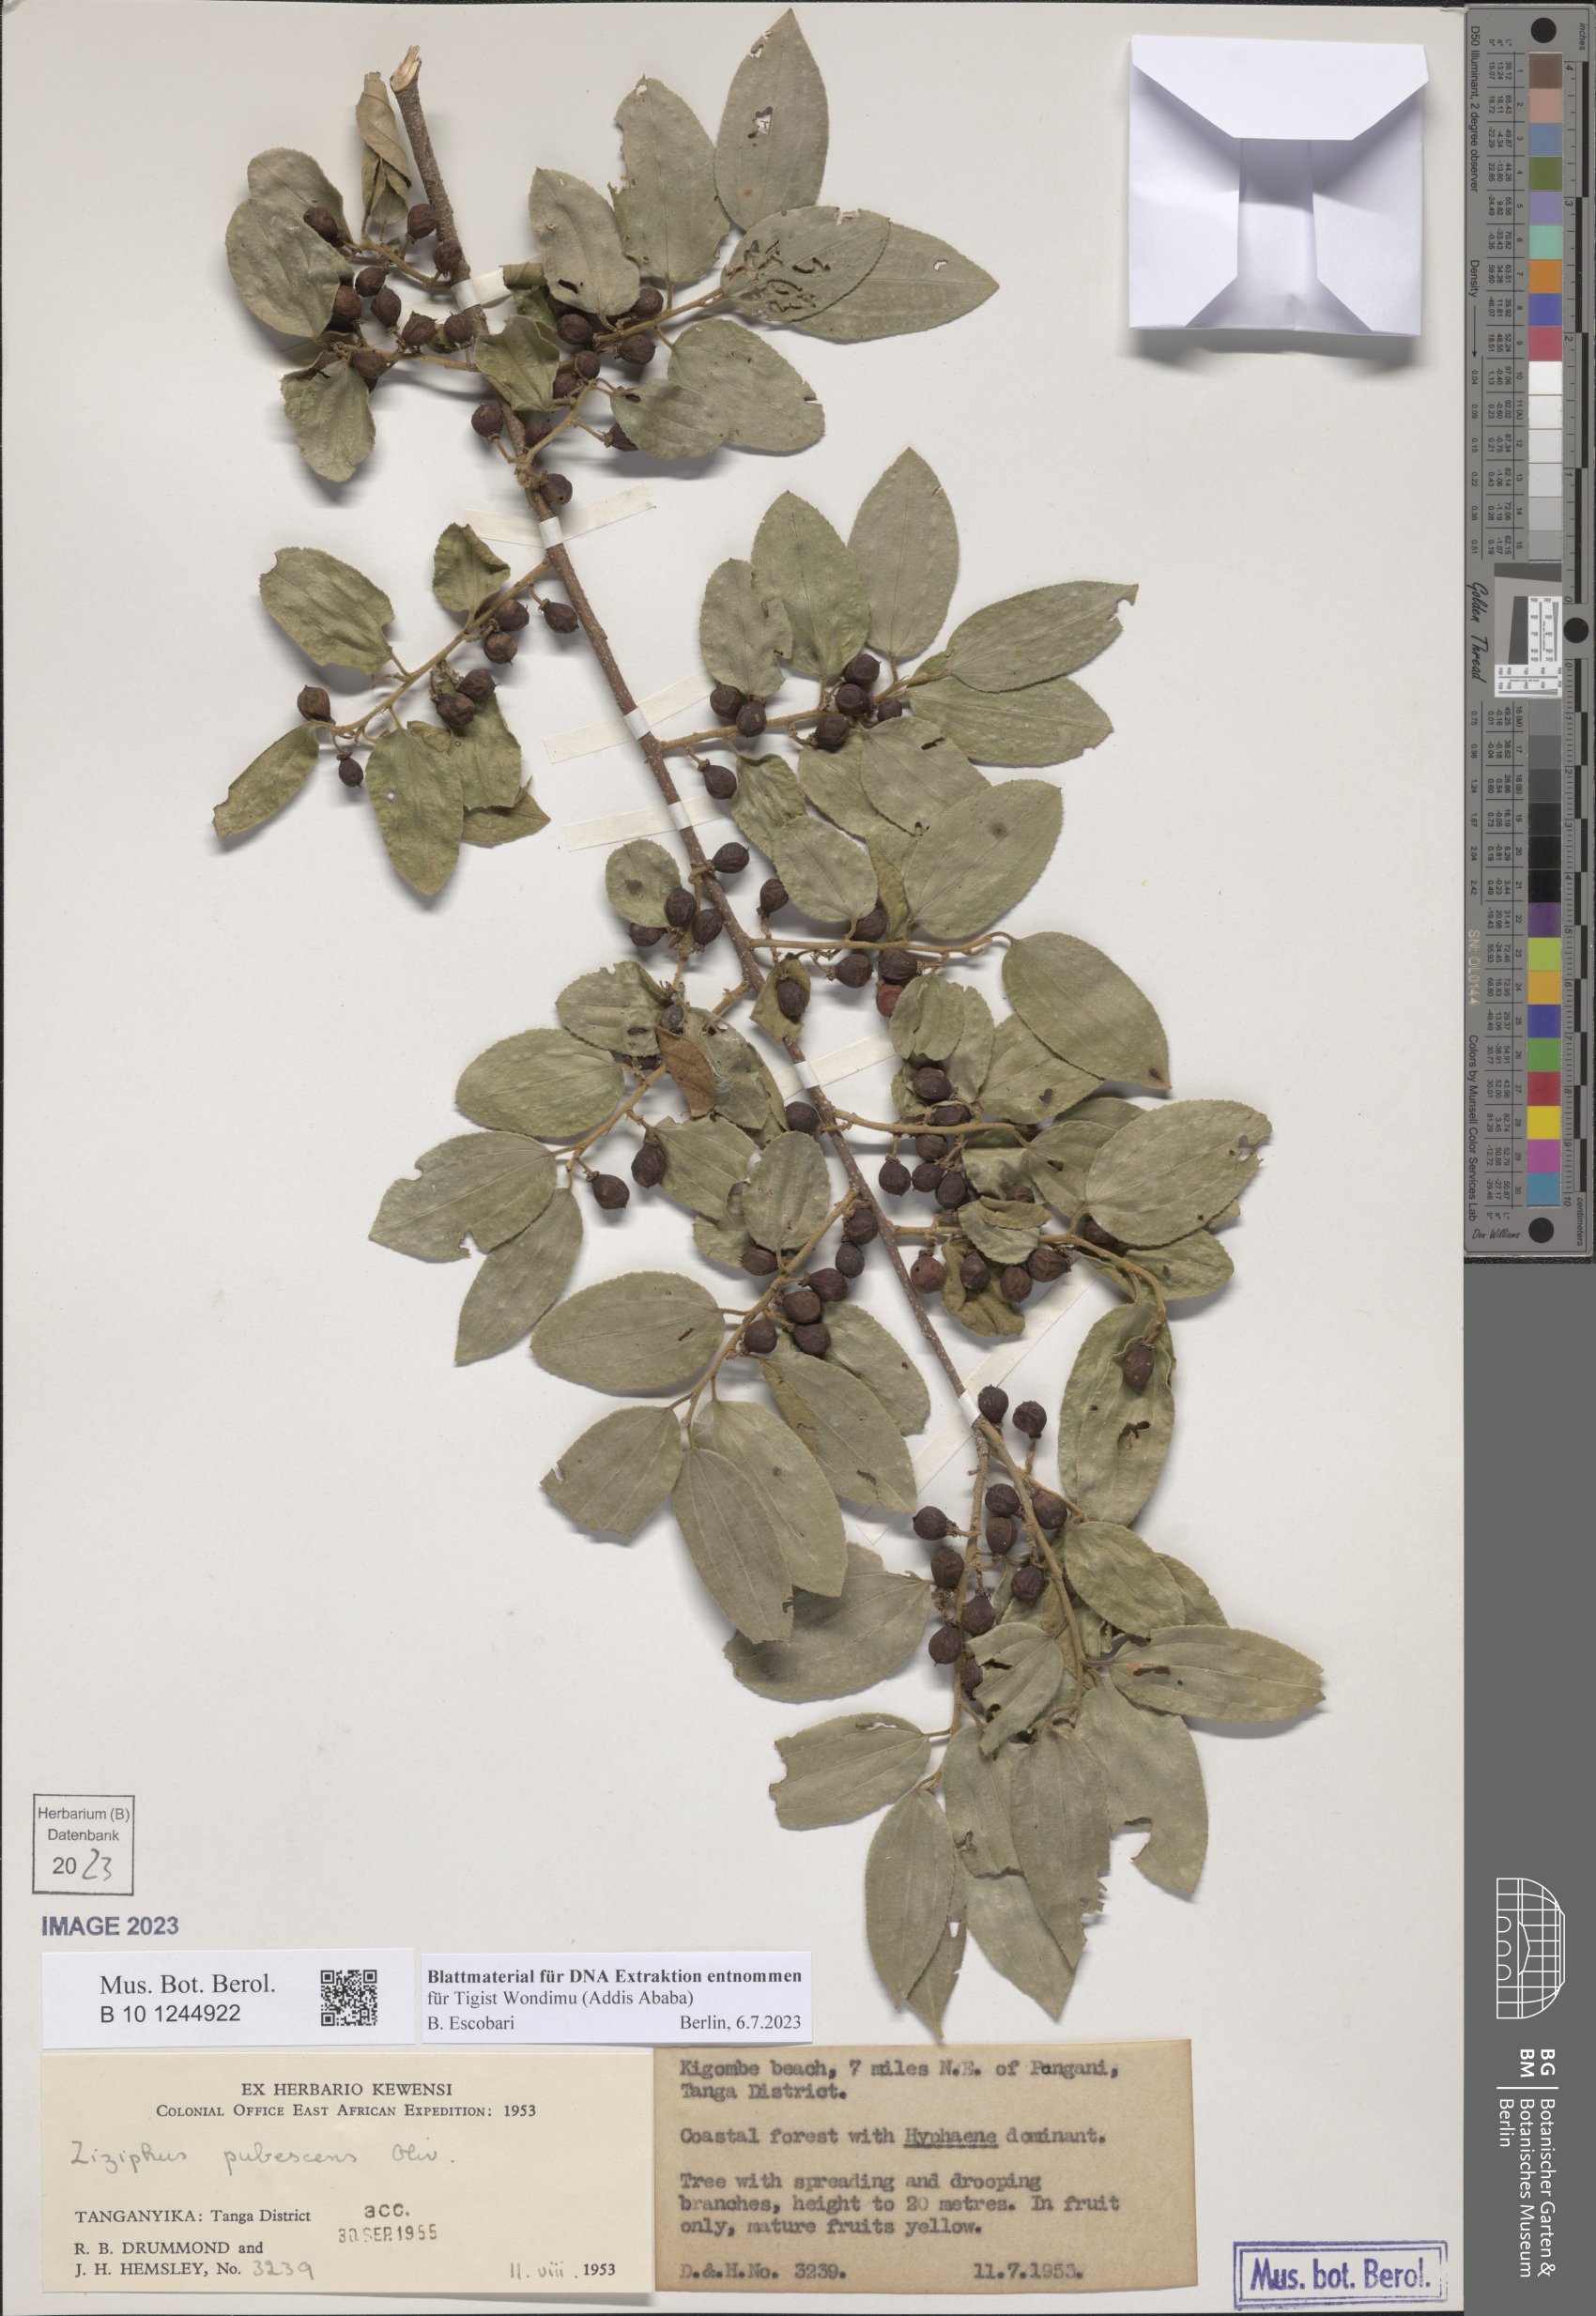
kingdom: Plantae
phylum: Tracheophyta
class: Magnoliopsida
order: Rosales
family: Rhamnaceae
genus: Ziziphus
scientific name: Ziziphus pubescens
